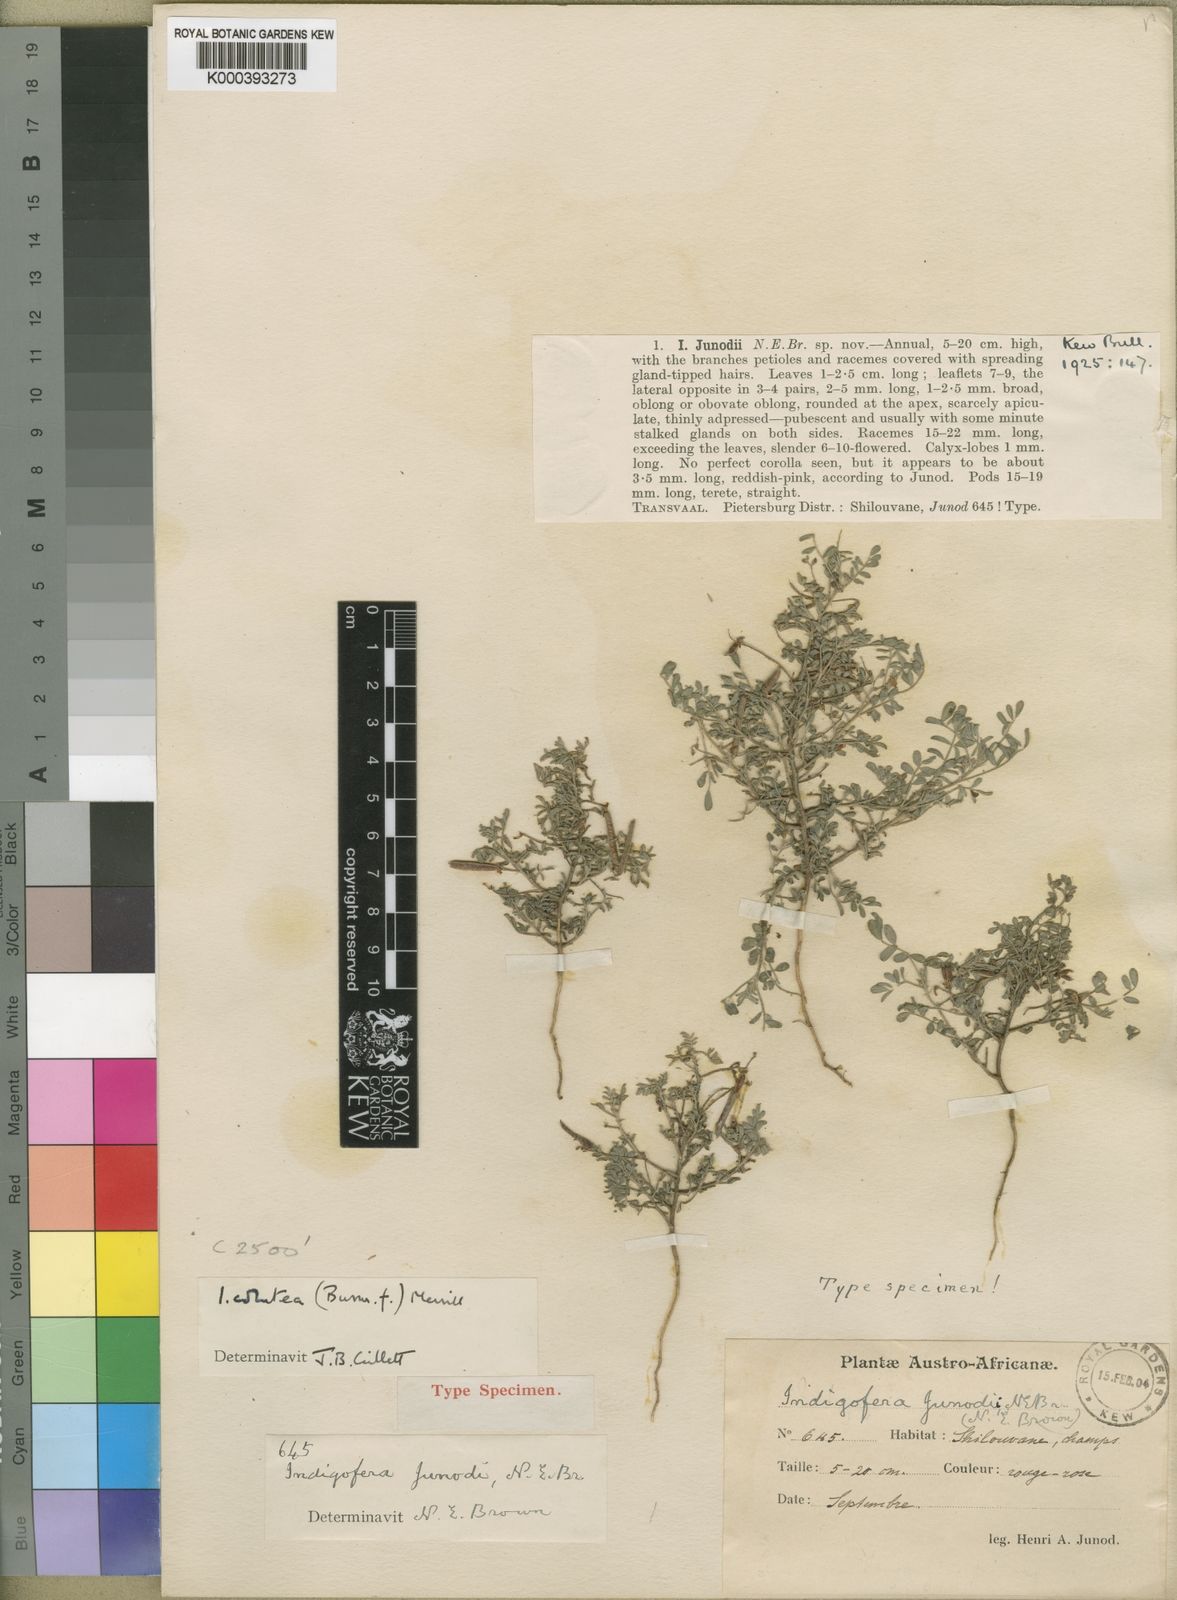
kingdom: Plantae
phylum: Tracheophyta
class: Magnoliopsida
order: Fabales
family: Fabaceae
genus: Indigofera
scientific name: Indigofera colutea
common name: Rusty indigo
